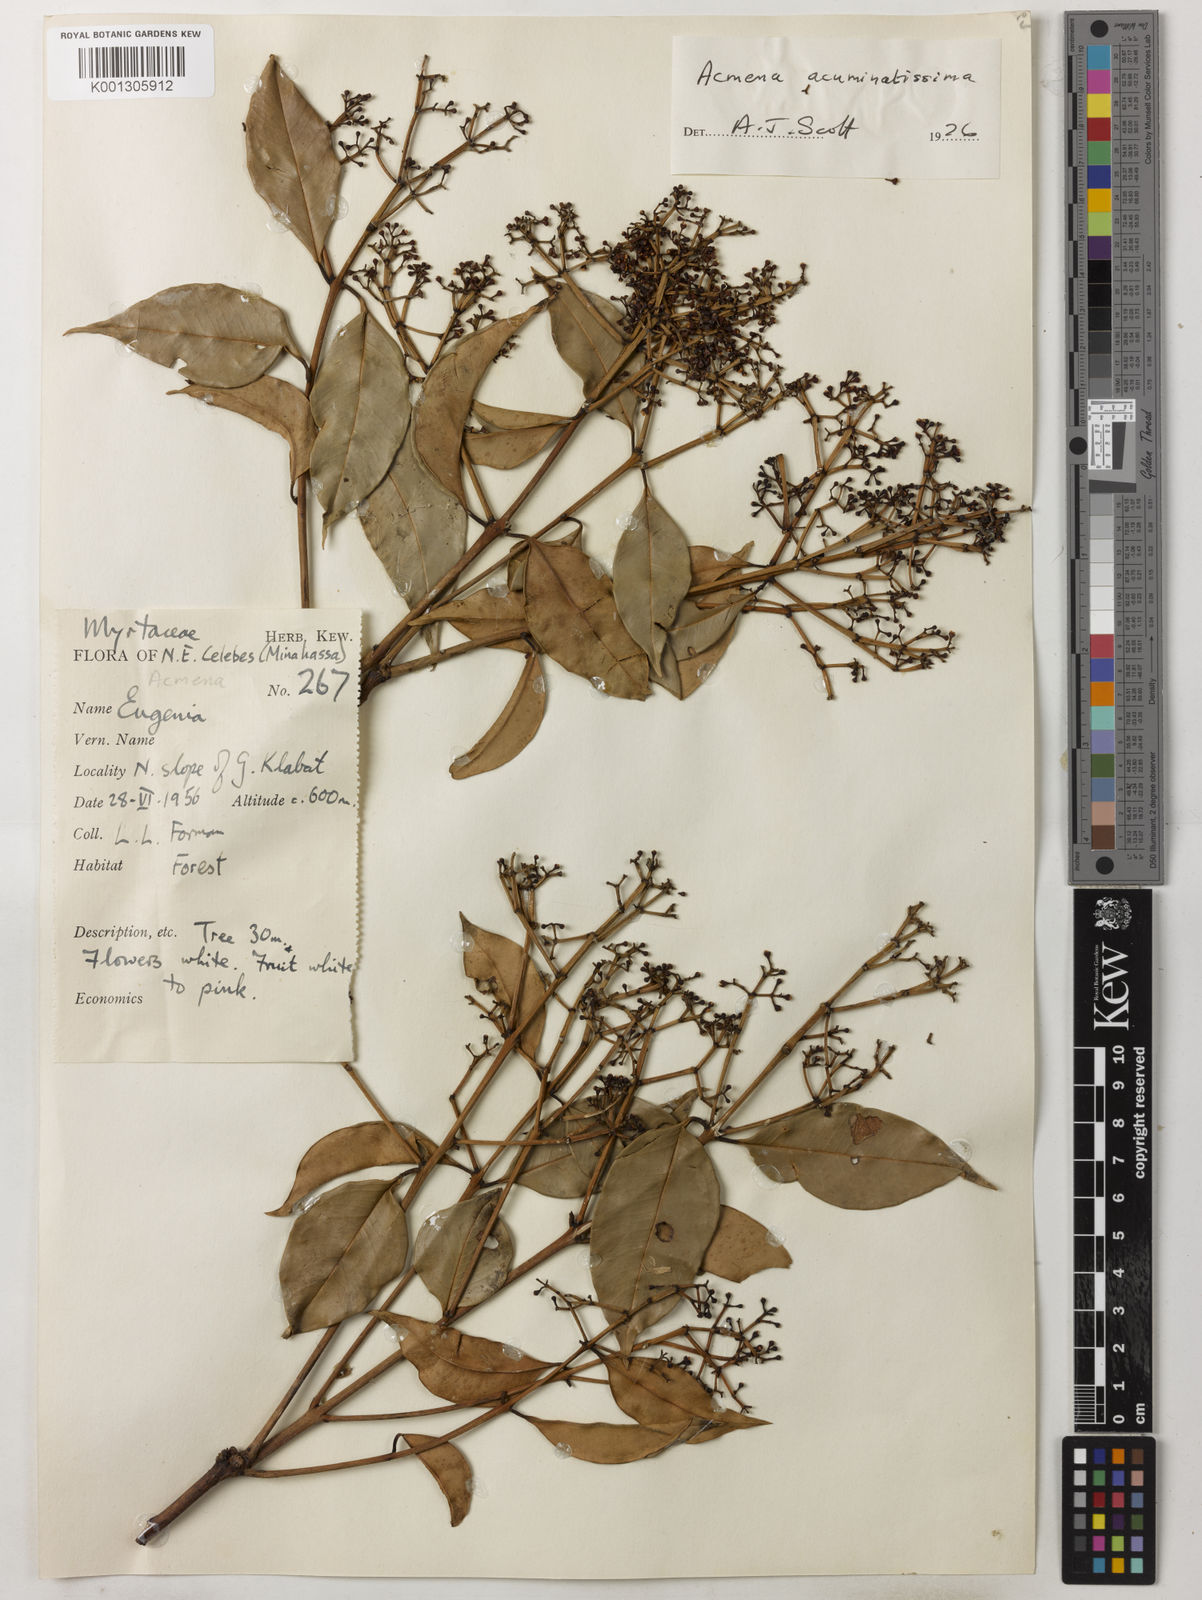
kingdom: Plantae
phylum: Tracheophyta
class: Magnoliopsida
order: Myrtales
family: Myrtaceae
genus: Syzygium
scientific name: Syzygium acuminatissimum
